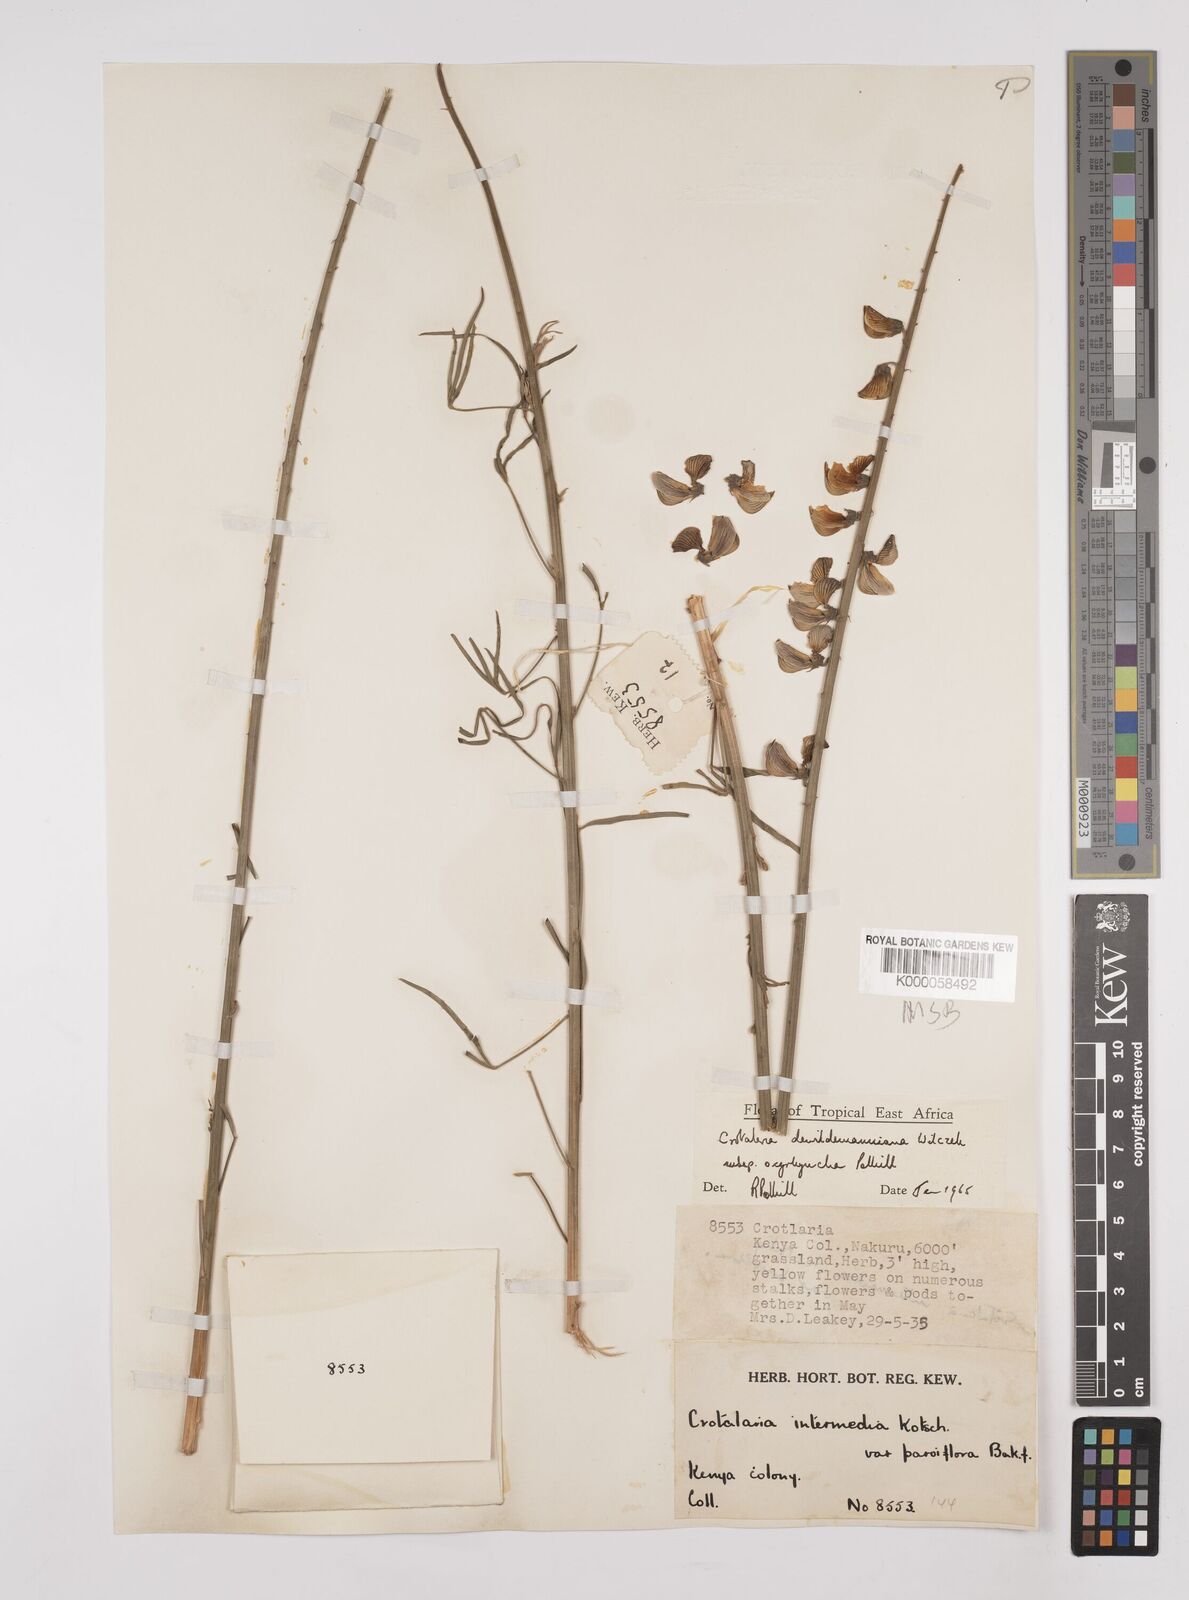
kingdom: Plantae
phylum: Tracheophyta
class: Magnoliopsida
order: Fabales
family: Fabaceae
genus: Crotalaria
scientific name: Crotalaria dewildemaniana
